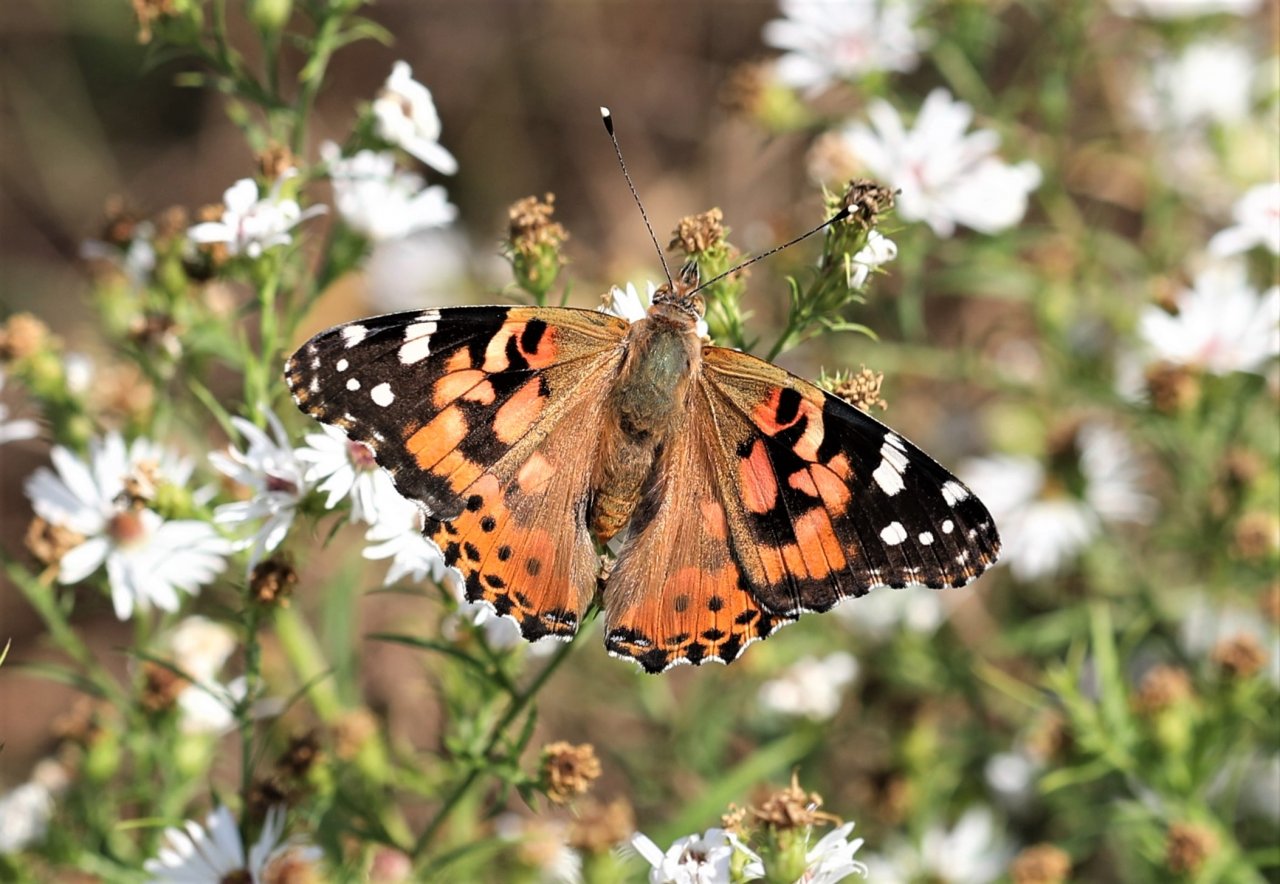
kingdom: Animalia
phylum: Arthropoda
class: Insecta
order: Lepidoptera
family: Nymphalidae
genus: Vanessa
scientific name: Vanessa cardui
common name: Painted Lady
